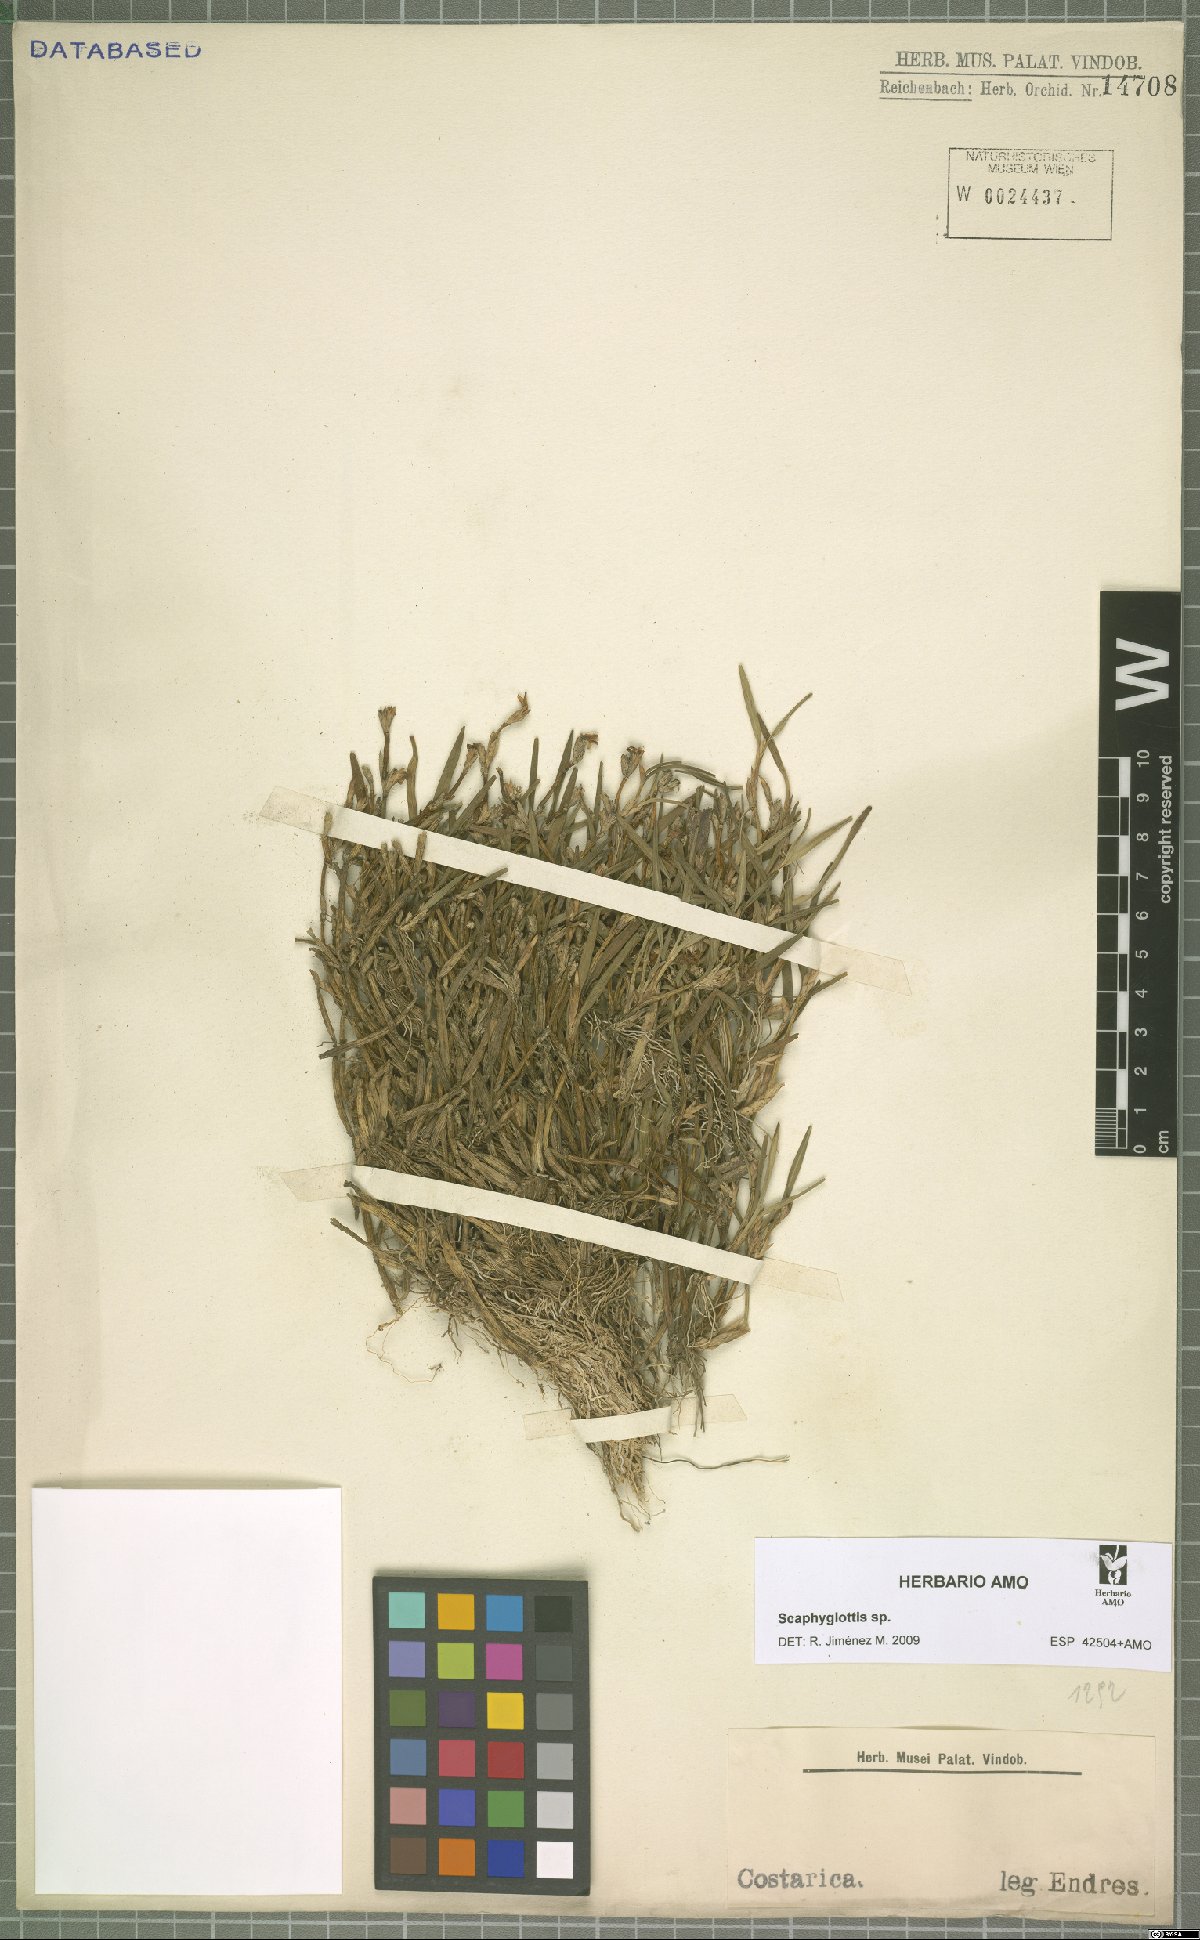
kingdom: Plantae
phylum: Tracheophyta
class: Liliopsida
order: Asparagales
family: Orchidaceae
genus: Scaphyglottis
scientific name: Scaphyglottis
